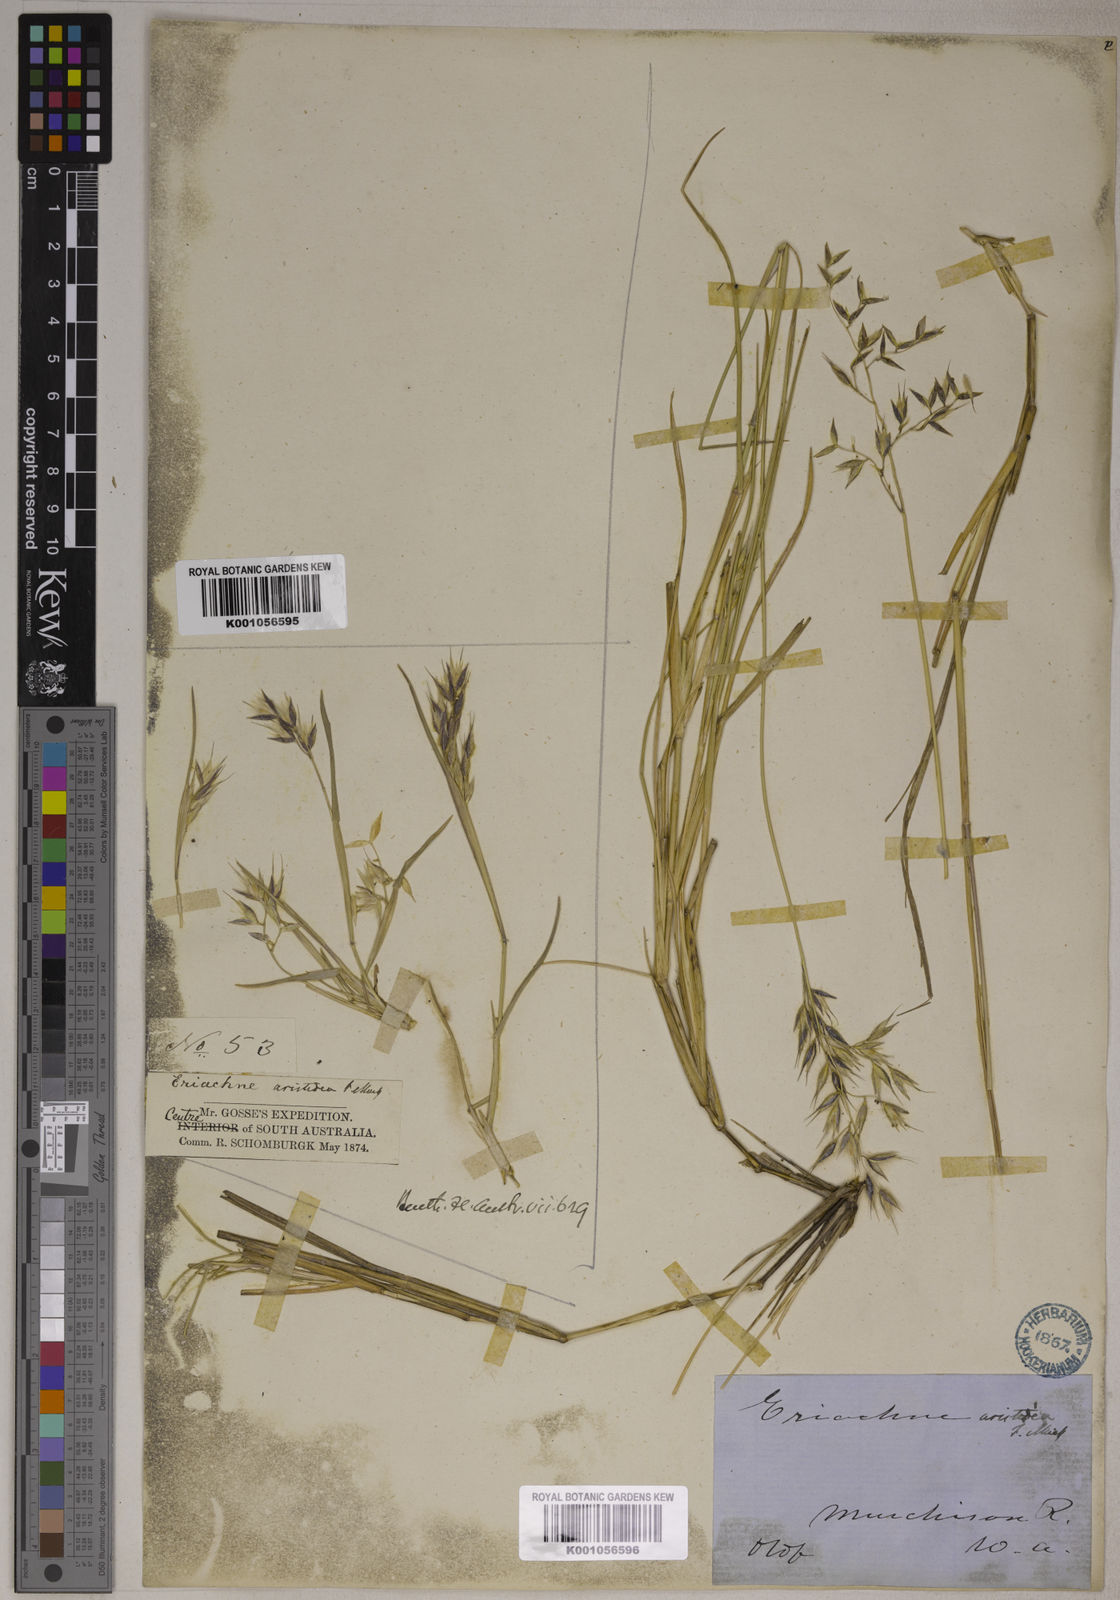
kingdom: Plantae
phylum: Tracheophyta
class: Liliopsida
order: Poales
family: Poaceae
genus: Eriachne
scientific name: Eriachne aristidea
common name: Three-awn wanderrie grass
